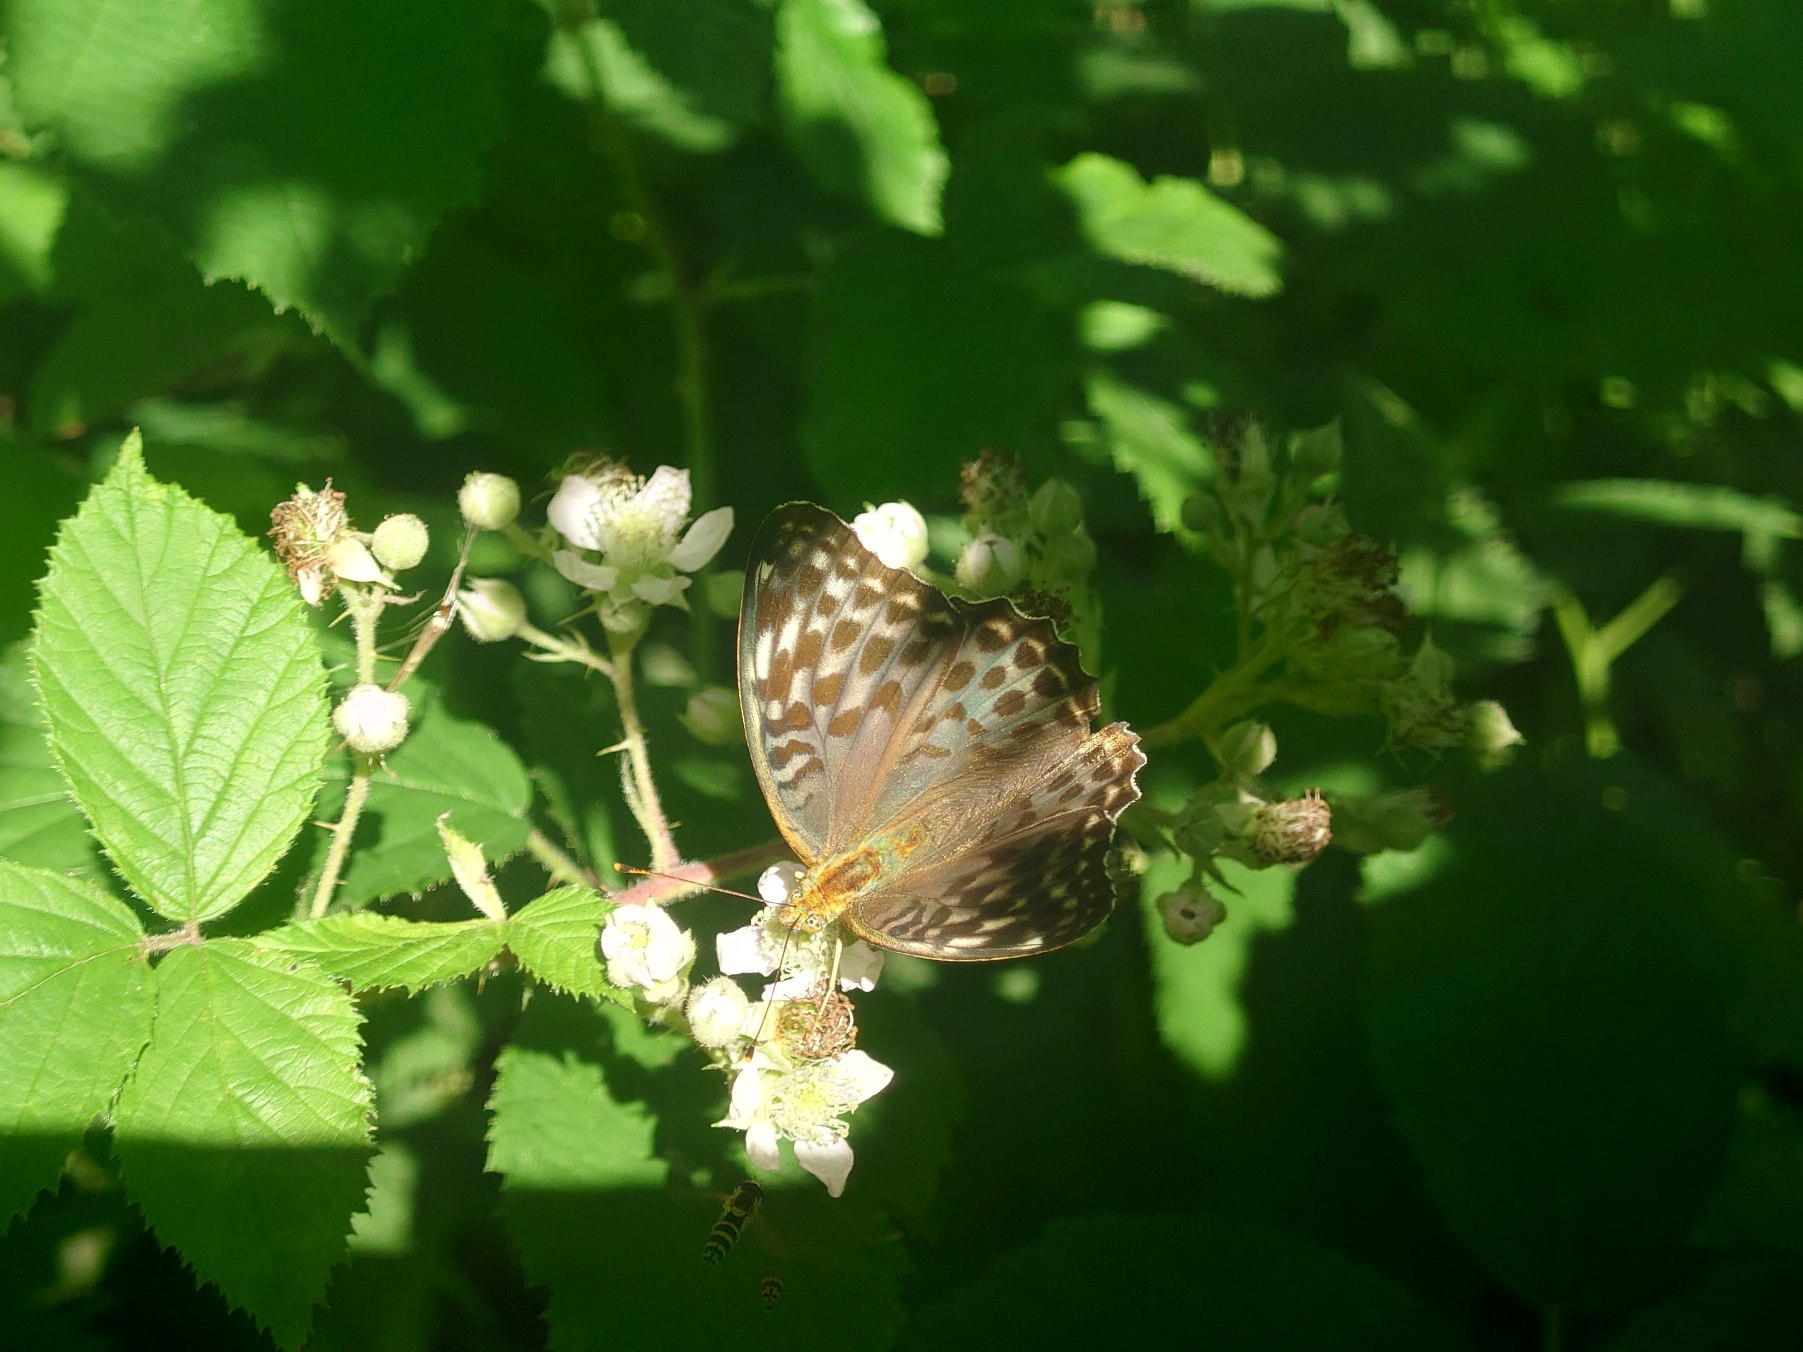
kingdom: Animalia
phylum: Arthropoda
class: Insecta
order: Lepidoptera
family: Nymphalidae
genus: Argynnis
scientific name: Argynnis paphia
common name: Kejserkåbe
